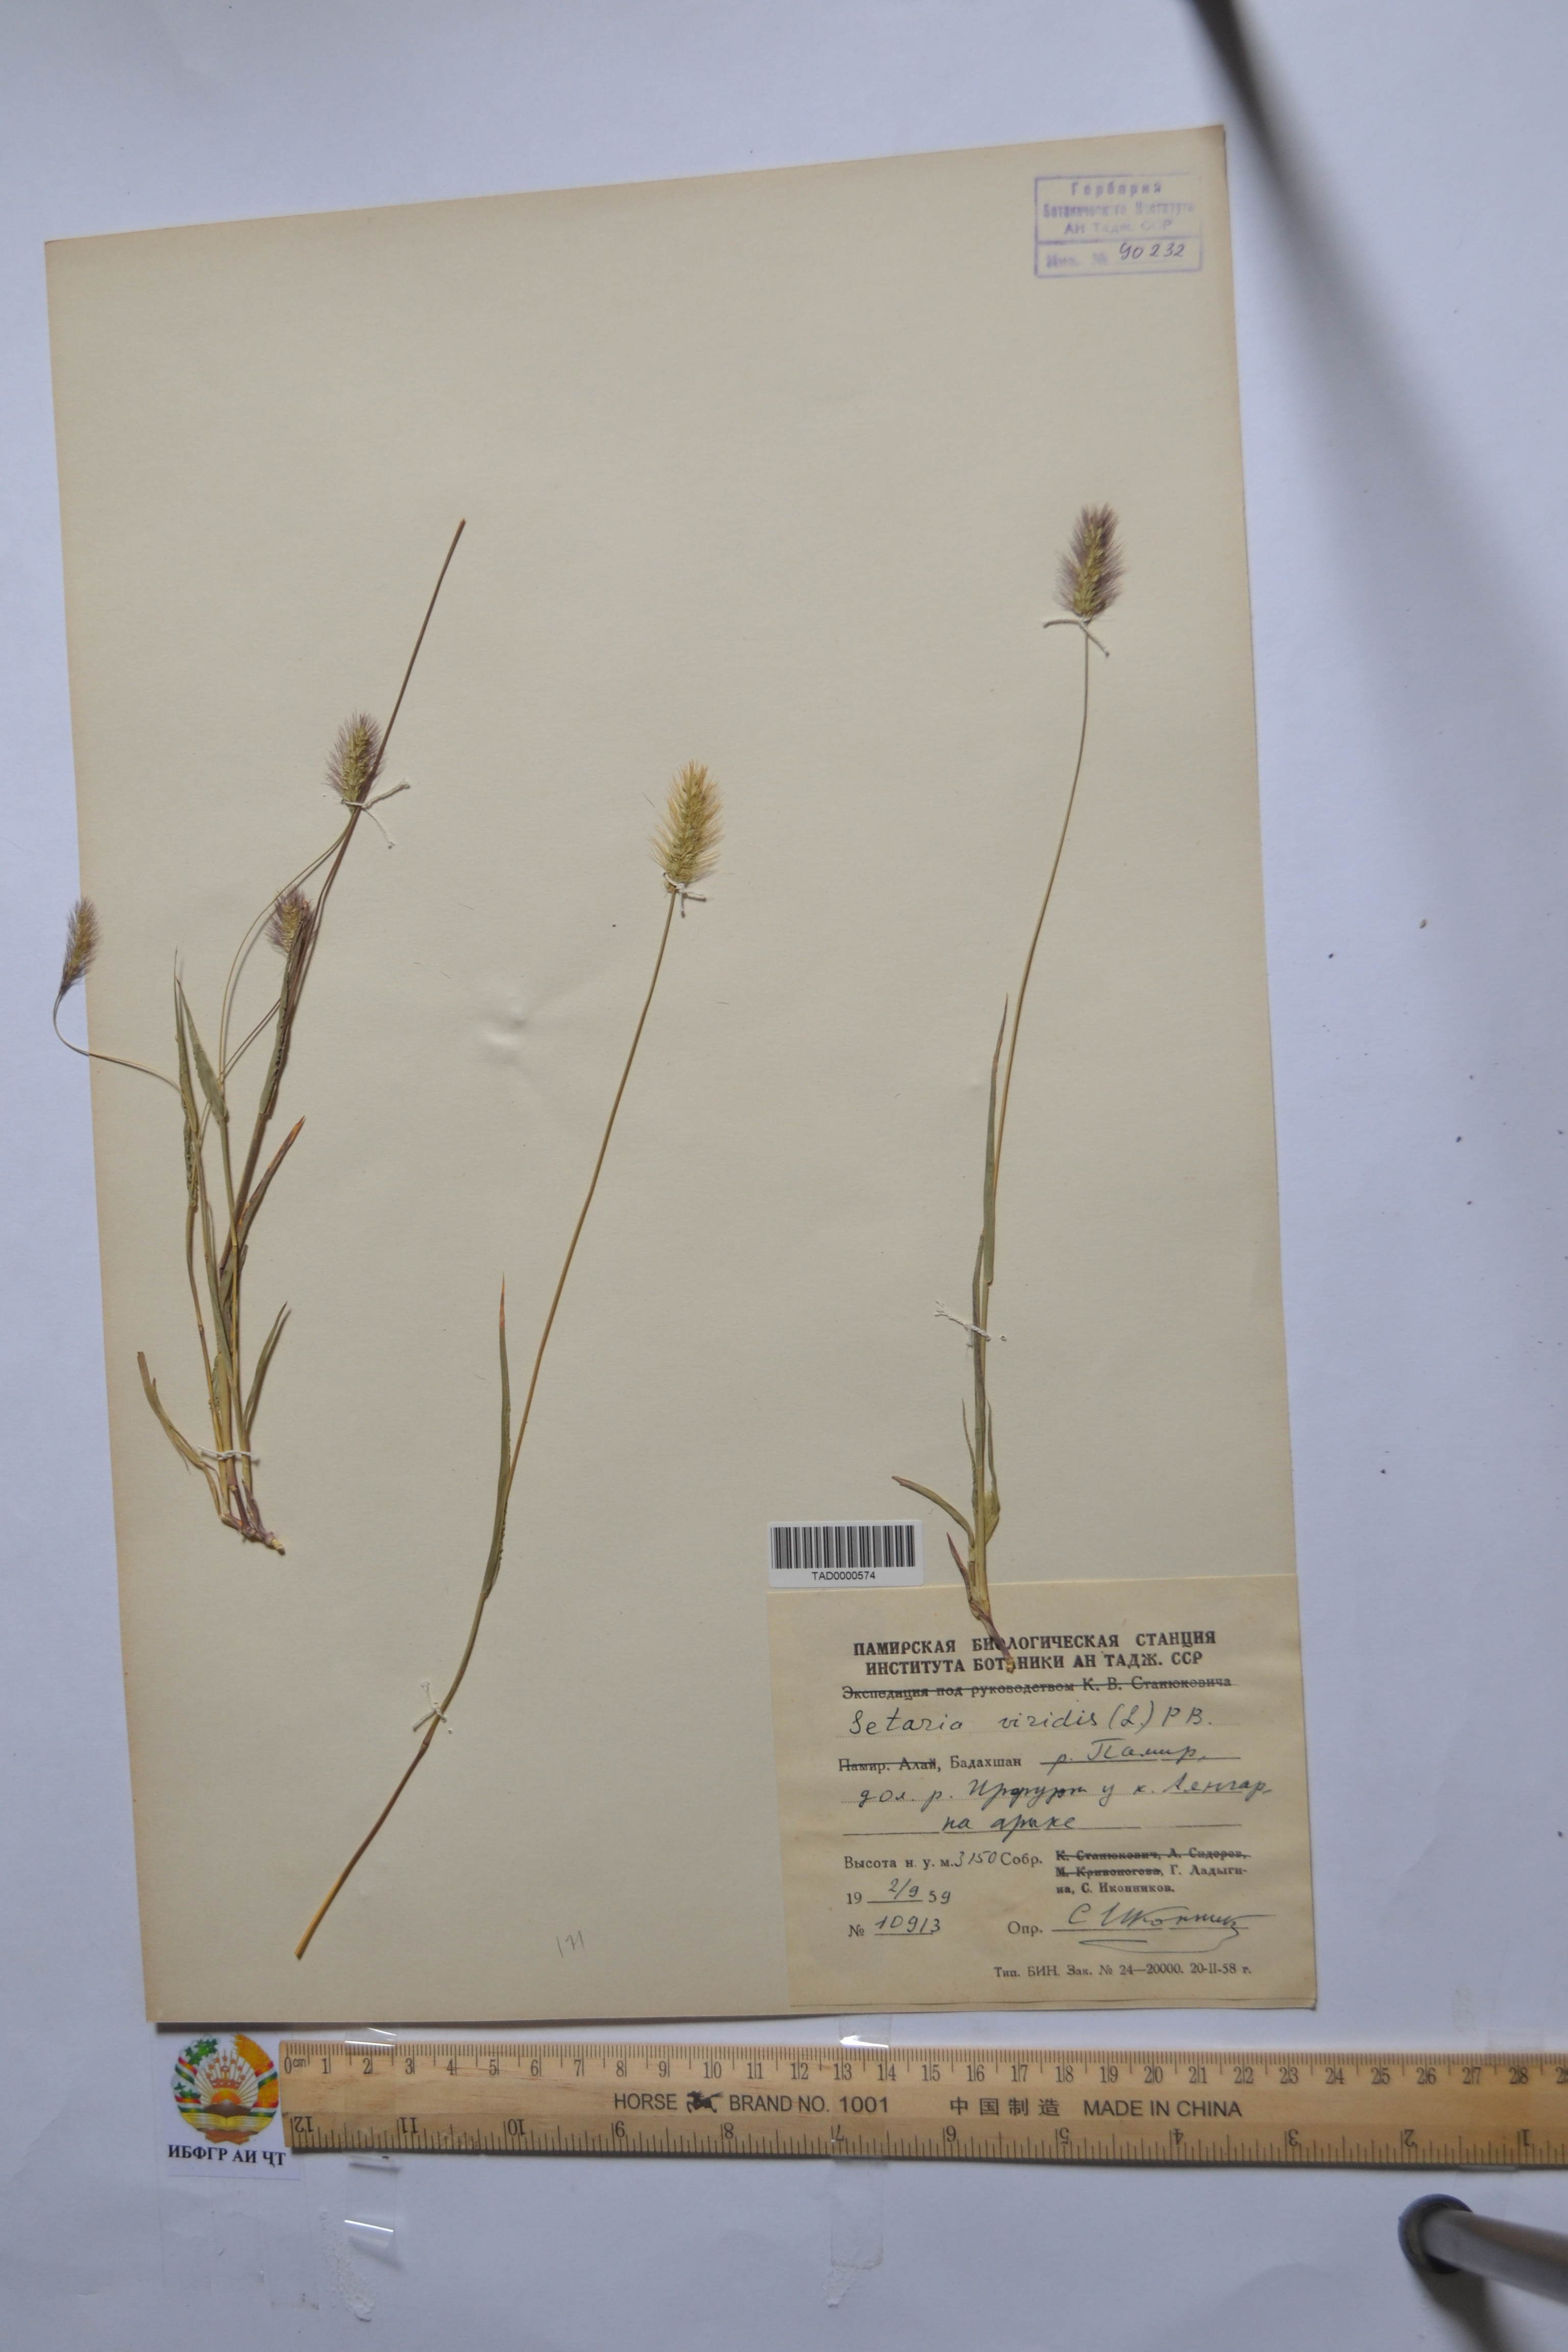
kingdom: Plantae
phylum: Tracheophyta
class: Liliopsida
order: Poales
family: Poaceae
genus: Setaria
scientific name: Setaria viridis
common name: Green bristlegrass
